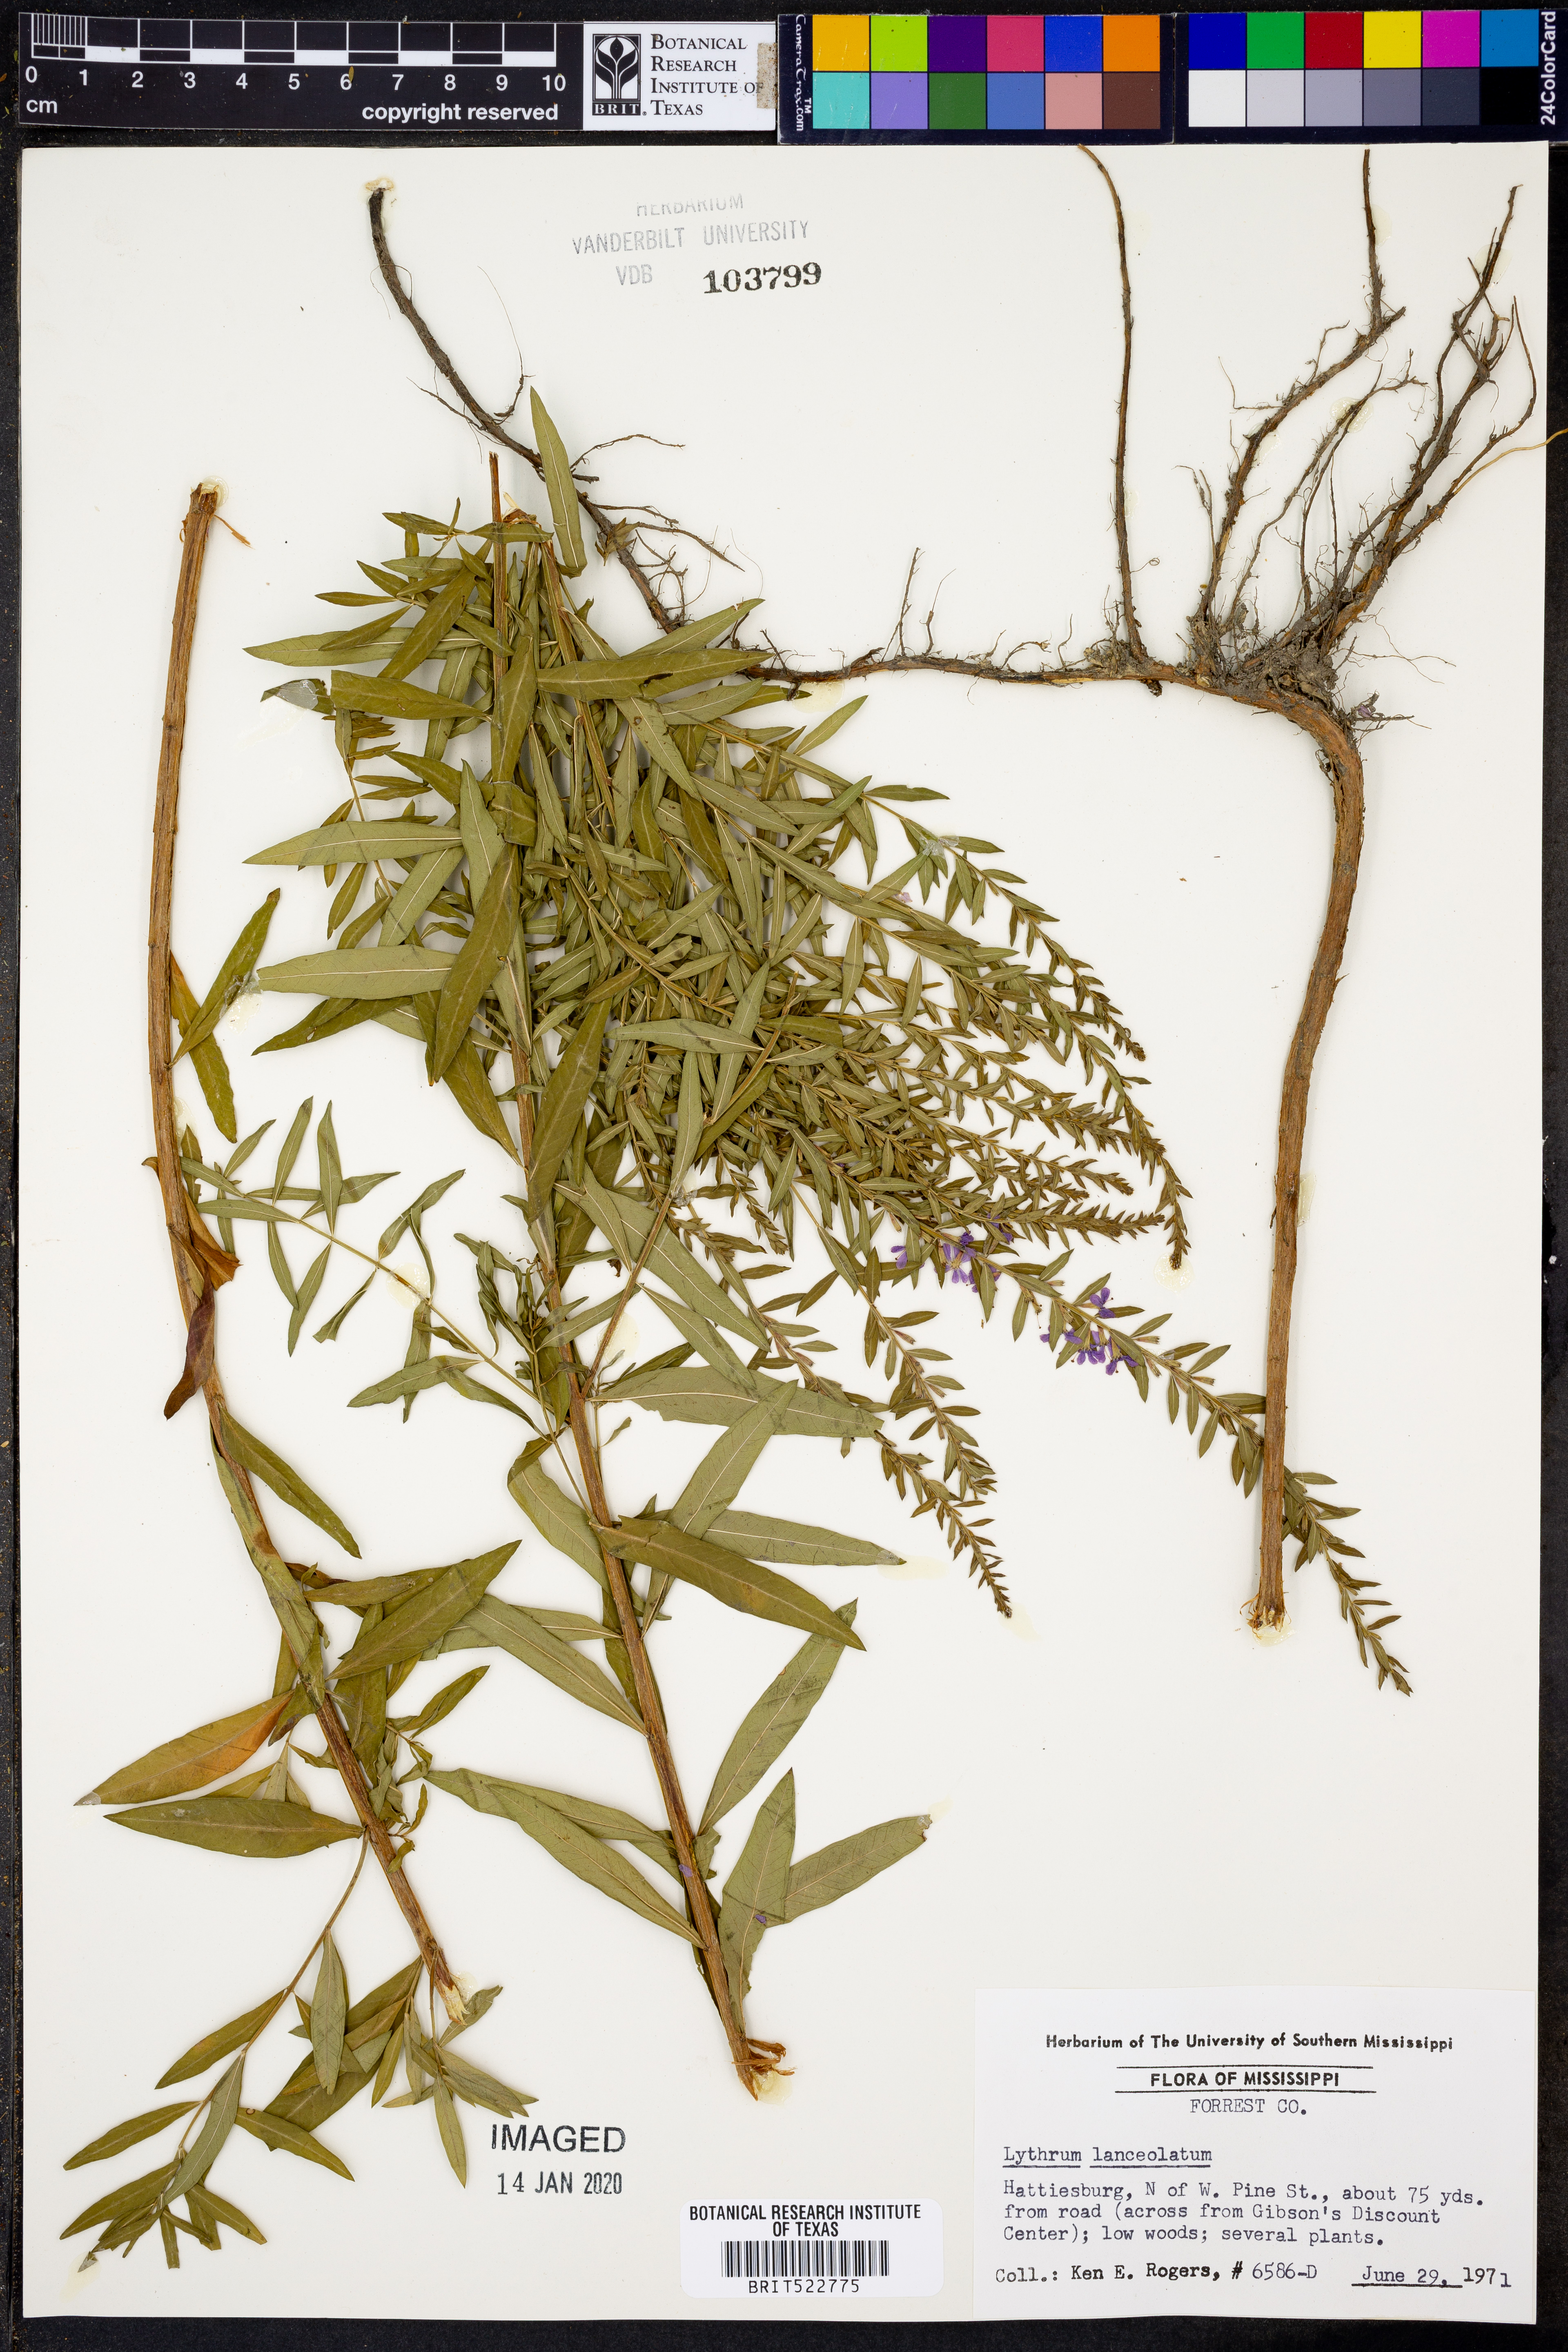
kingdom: Plantae
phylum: Tracheophyta
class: Magnoliopsida
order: Myrtales
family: Lythraceae
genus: Lythrum
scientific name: Lythrum alatum
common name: Winged loosestrife
